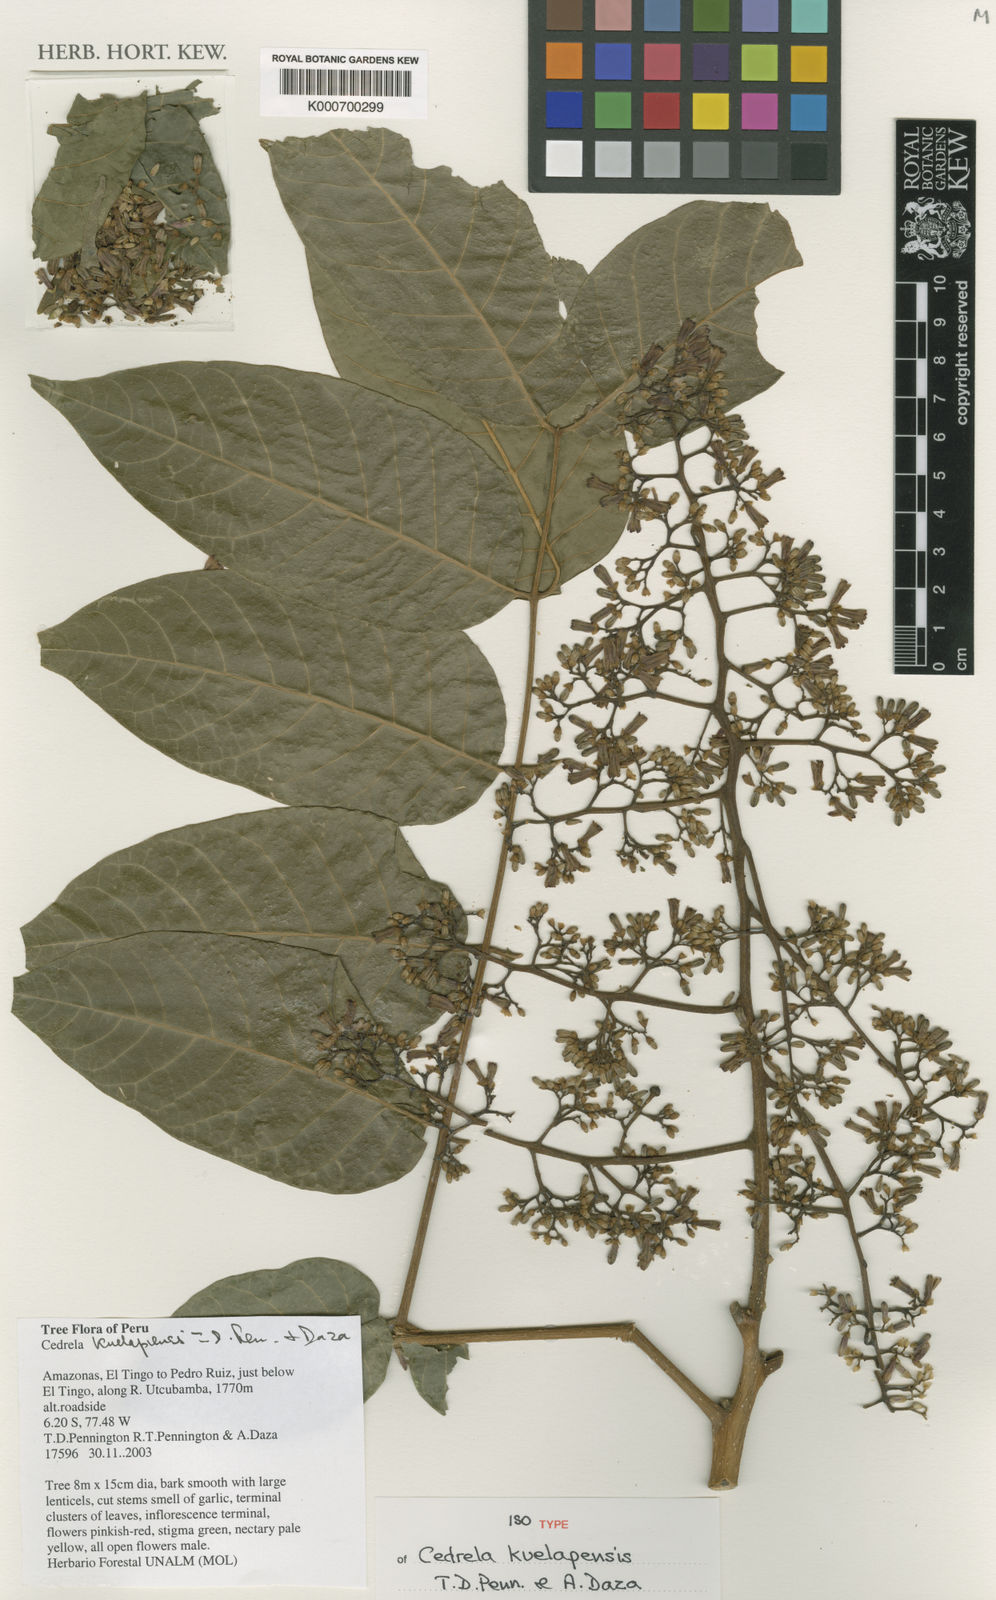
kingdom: Plantae
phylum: Tracheophyta
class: Magnoliopsida
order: Sapindales
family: Meliaceae
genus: Cedrela
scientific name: Cedrela kuelapensis
